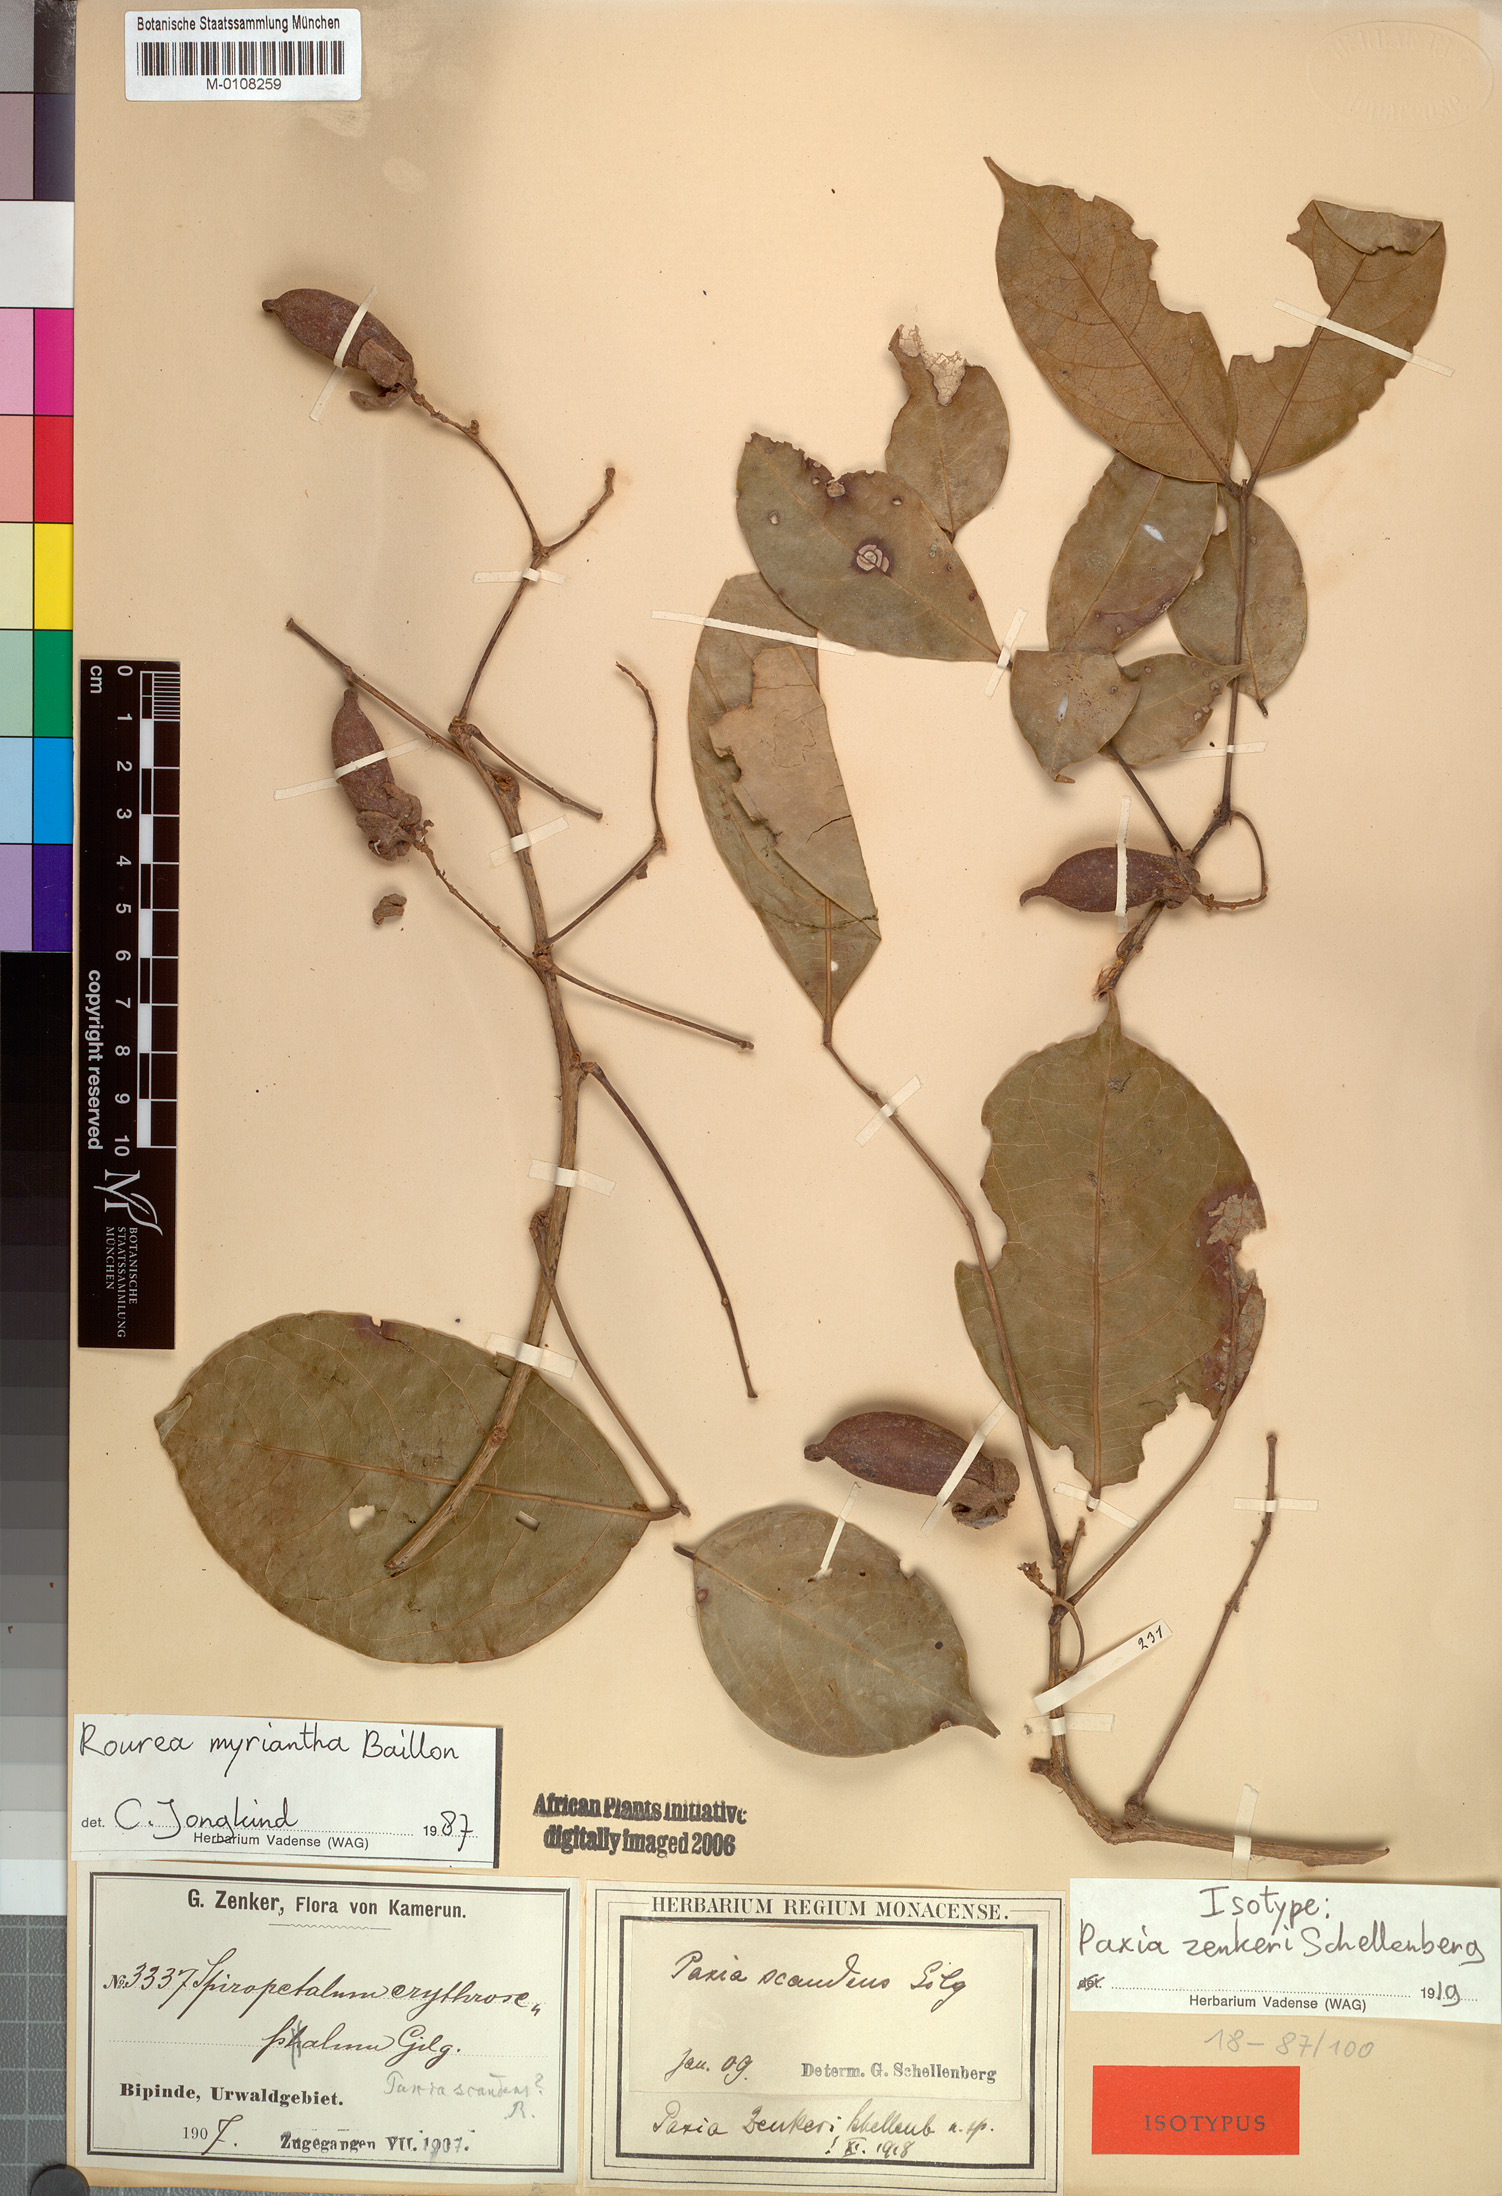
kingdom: Plantae
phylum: Tracheophyta
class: Magnoliopsida
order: Oxalidales
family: Connaraceae
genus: Rourea
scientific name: Rourea myriantha
